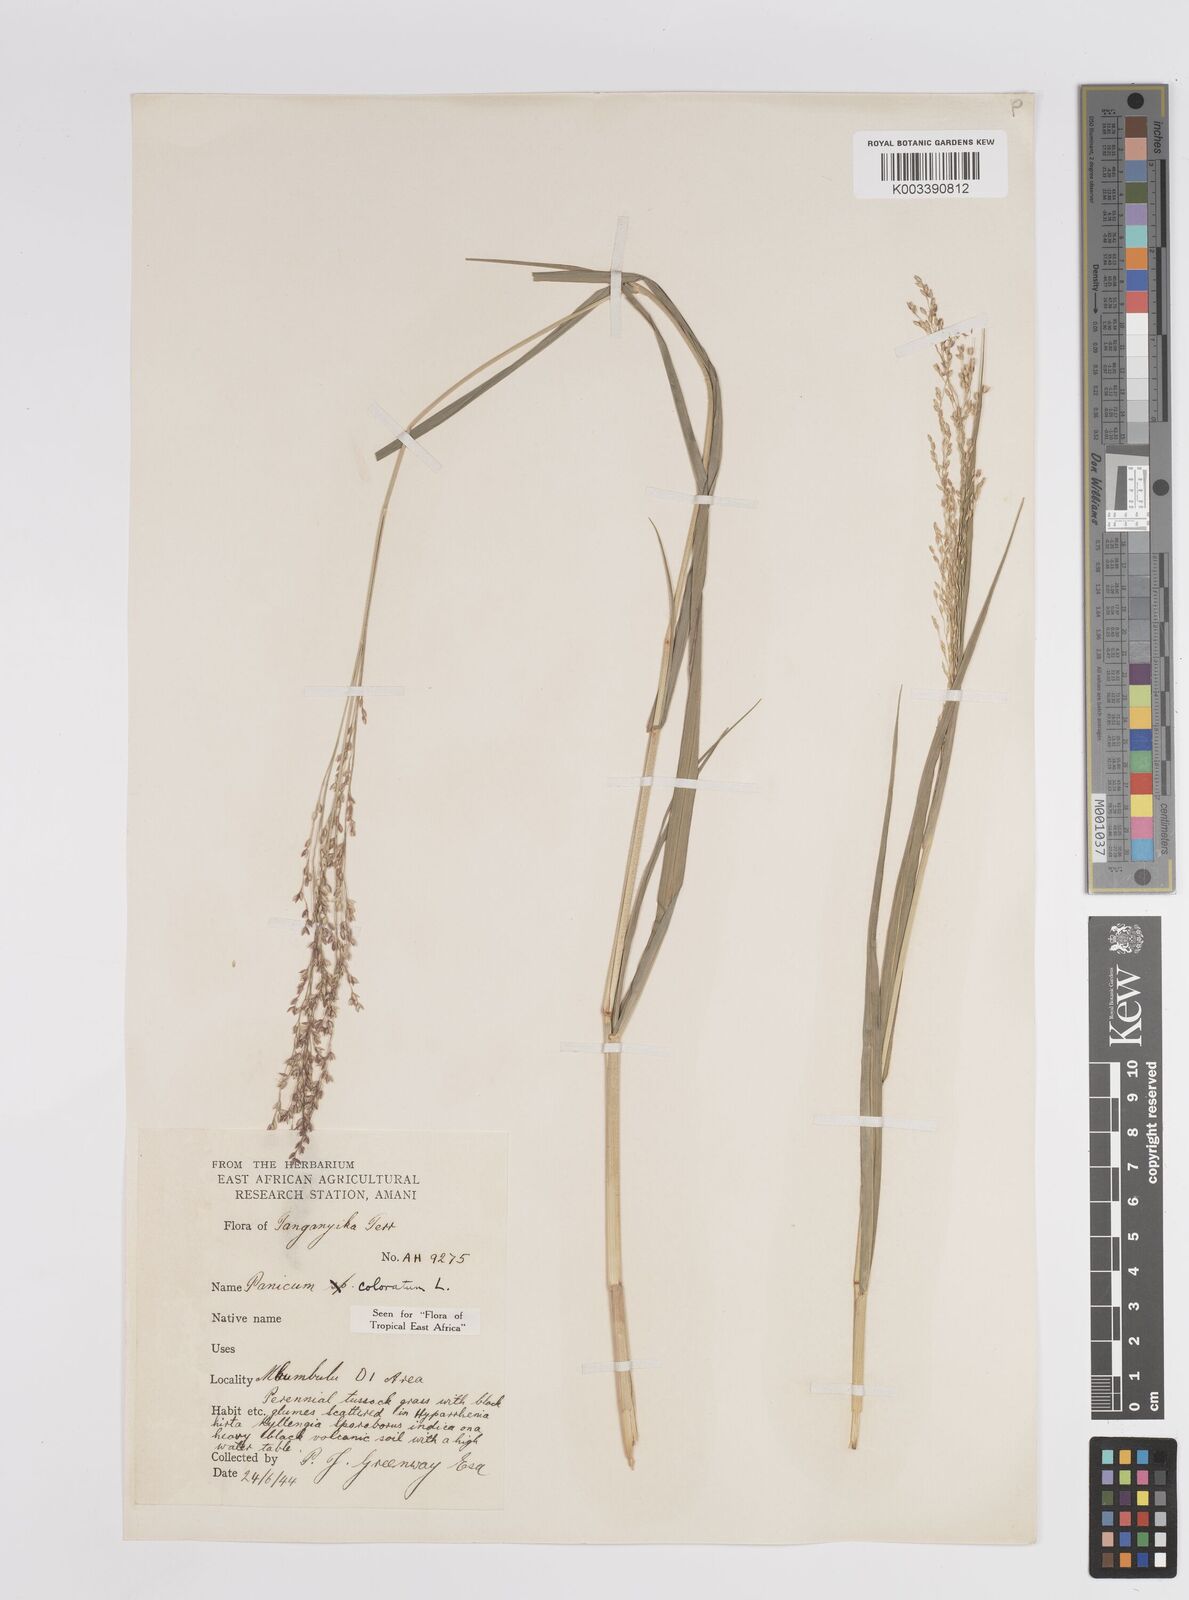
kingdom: Plantae
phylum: Tracheophyta
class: Liliopsida
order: Poales
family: Poaceae
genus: Panicum
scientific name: Panicum coloratum
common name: Kleingrass
